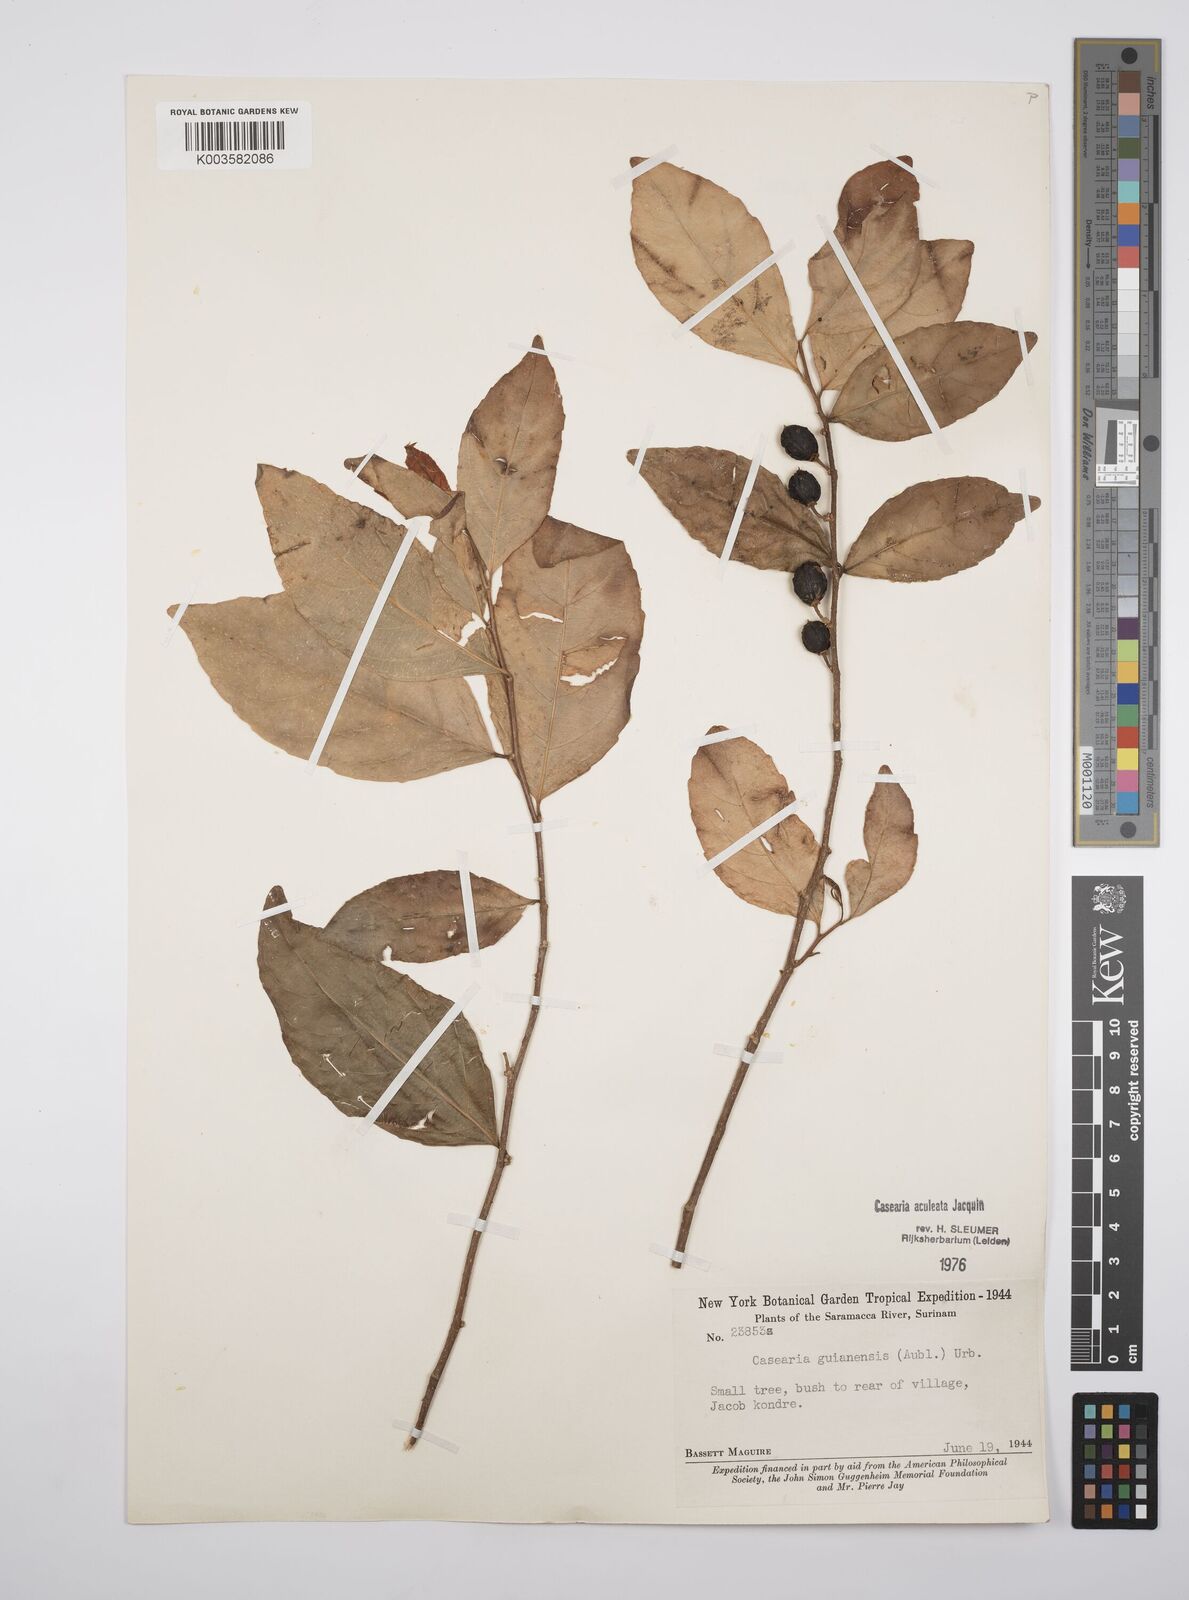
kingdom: Plantae
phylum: Tracheophyta
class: Magnoliopsida
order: Malpighiales
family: Salicaceae
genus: Casearia
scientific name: Casearia aculeata
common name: Cockspur
